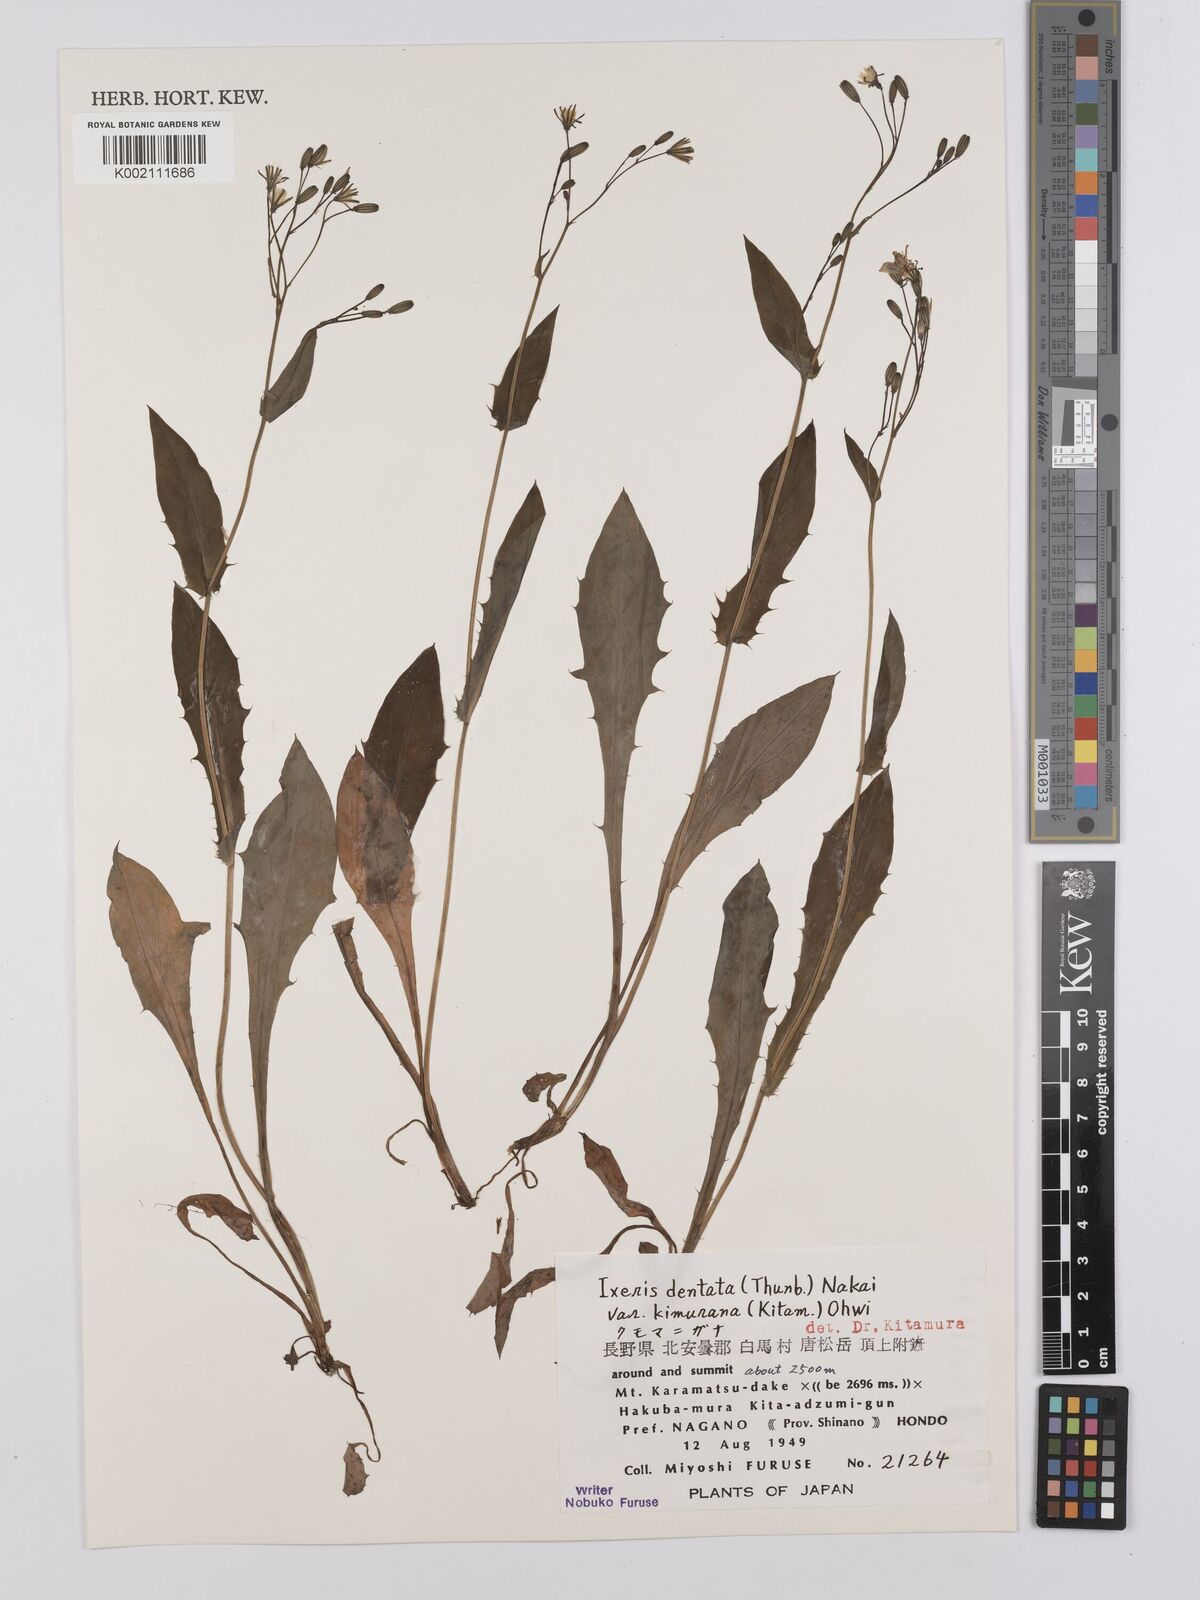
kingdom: Plantae
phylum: Tracheophyta
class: Magnoliopsida
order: Asterales
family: Asteraceae
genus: Ixeridium
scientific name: Ixeridium dentatum
